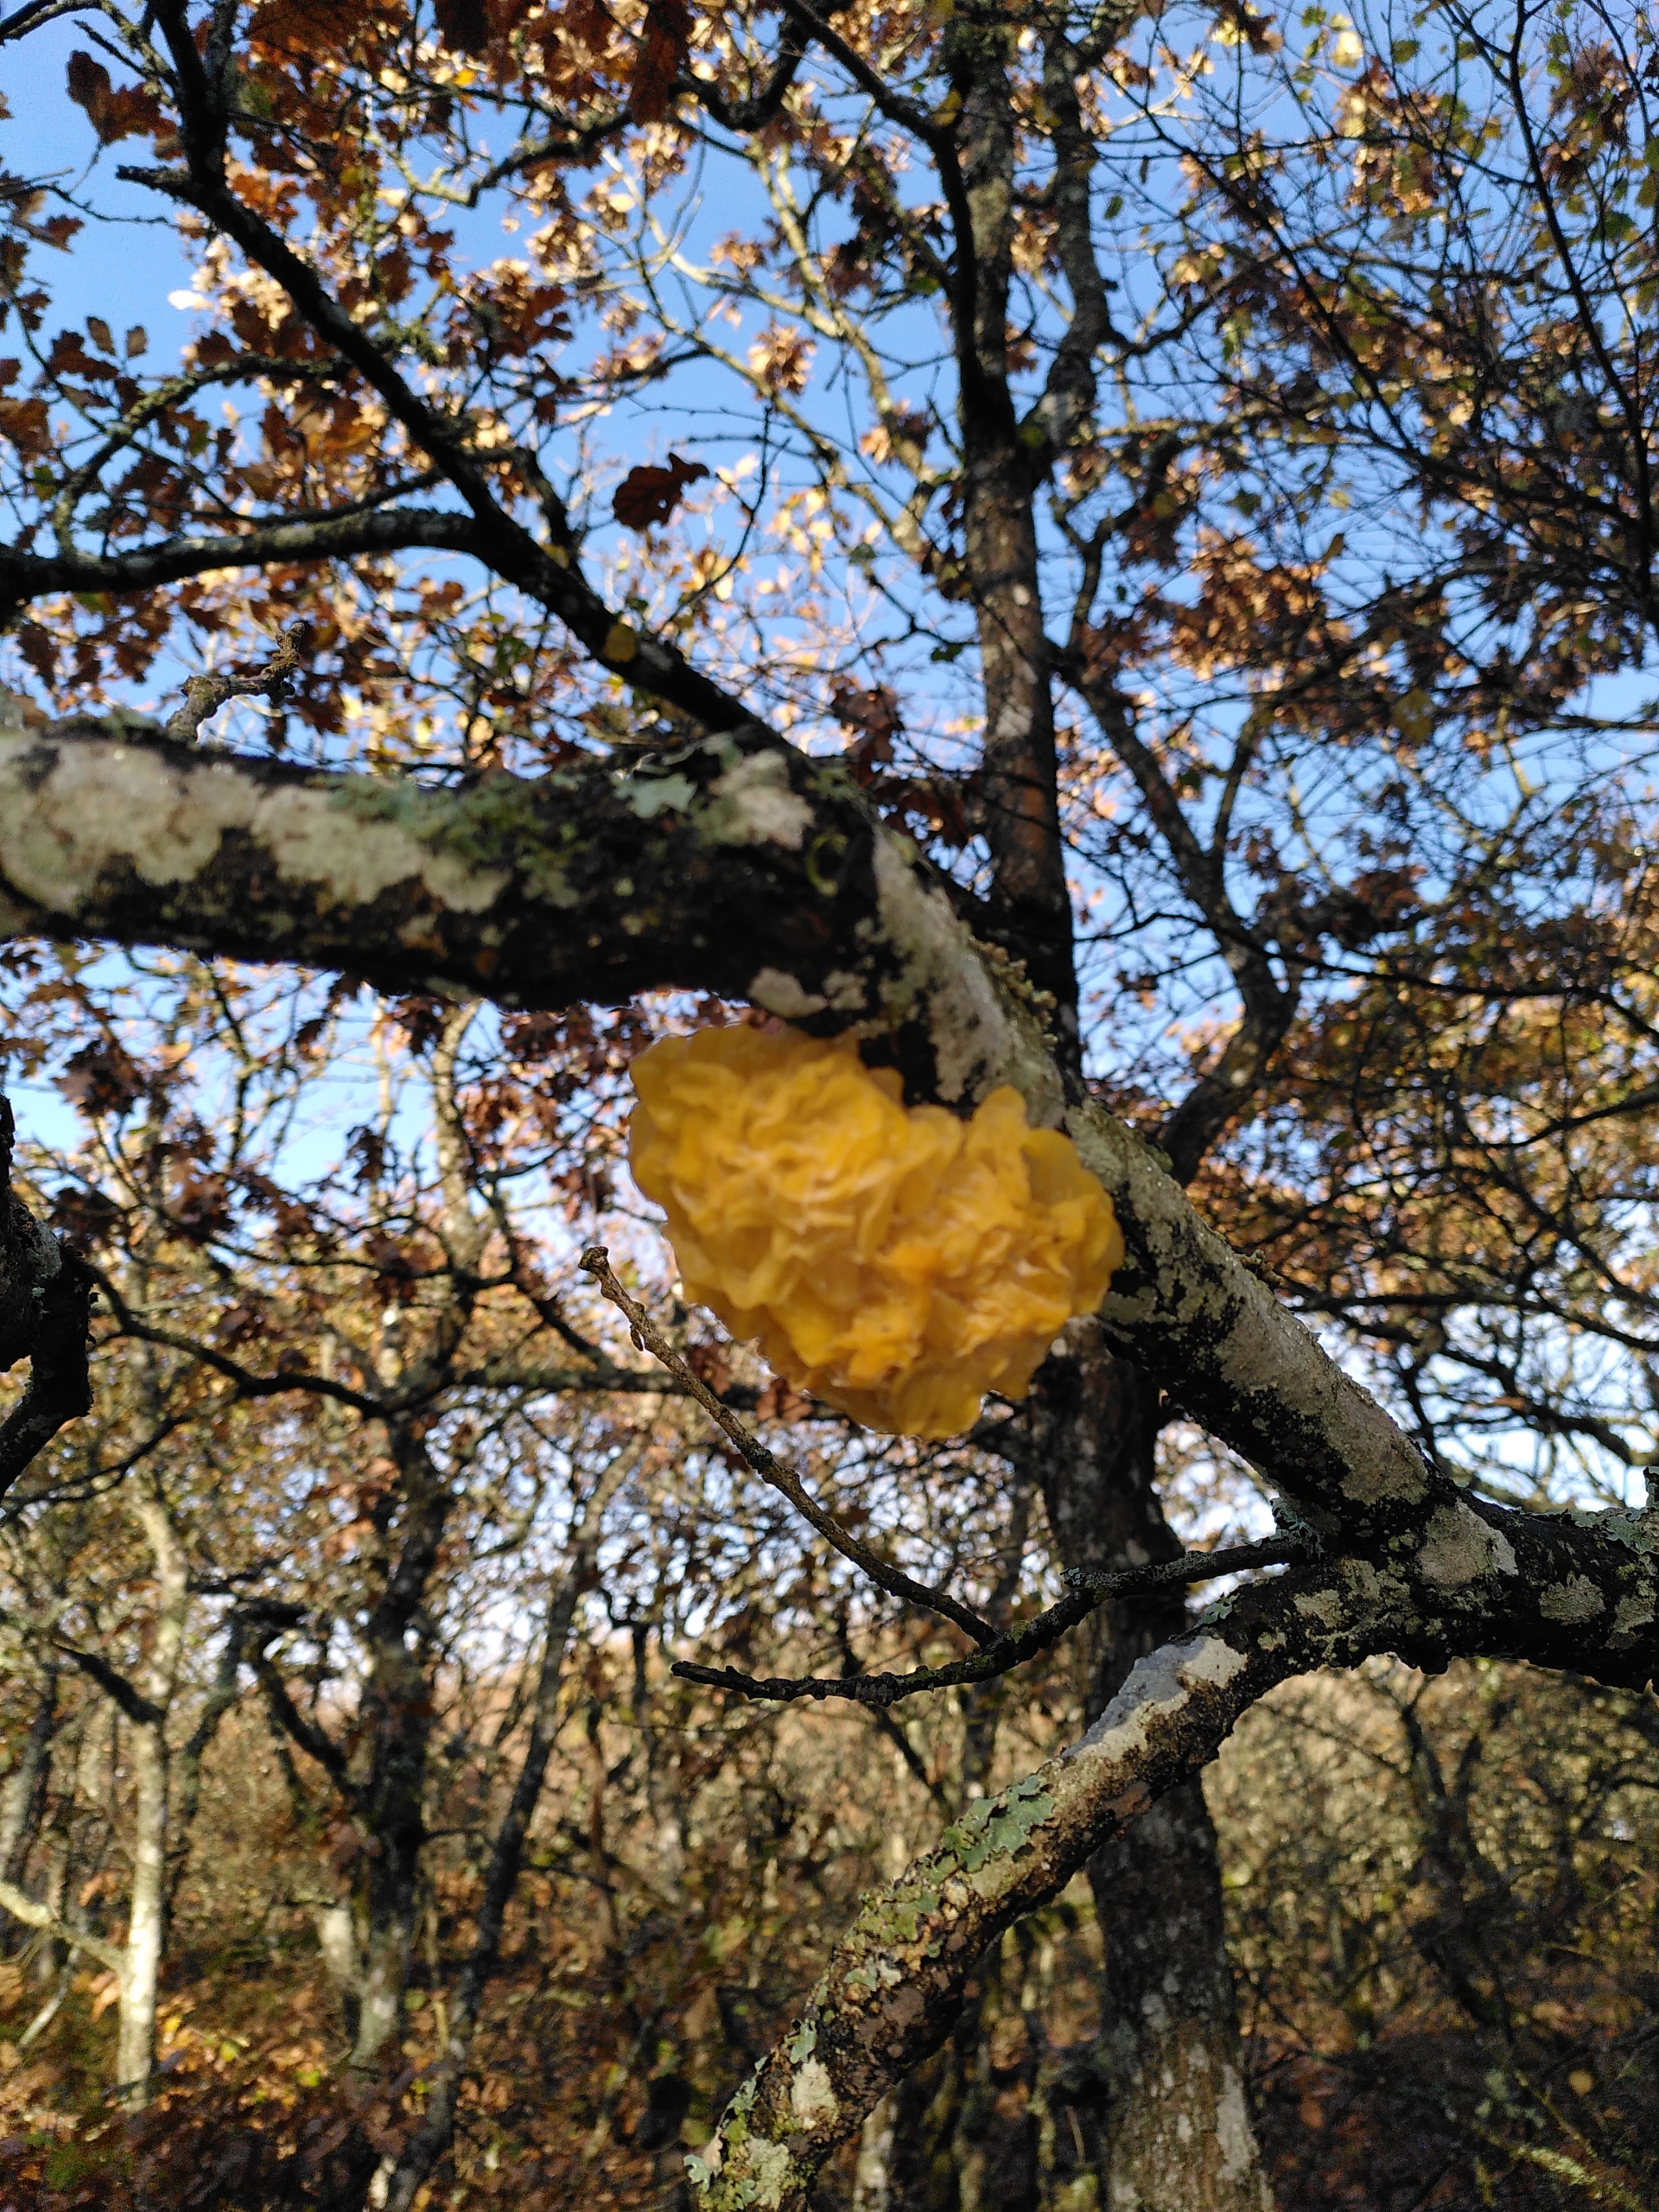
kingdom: Fungi
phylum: Basidiomycota
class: Tremellomycetes
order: Tremellales
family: Tremellaceae
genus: Tremella
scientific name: Tremella mesenterica
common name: Gul bævresvamp
